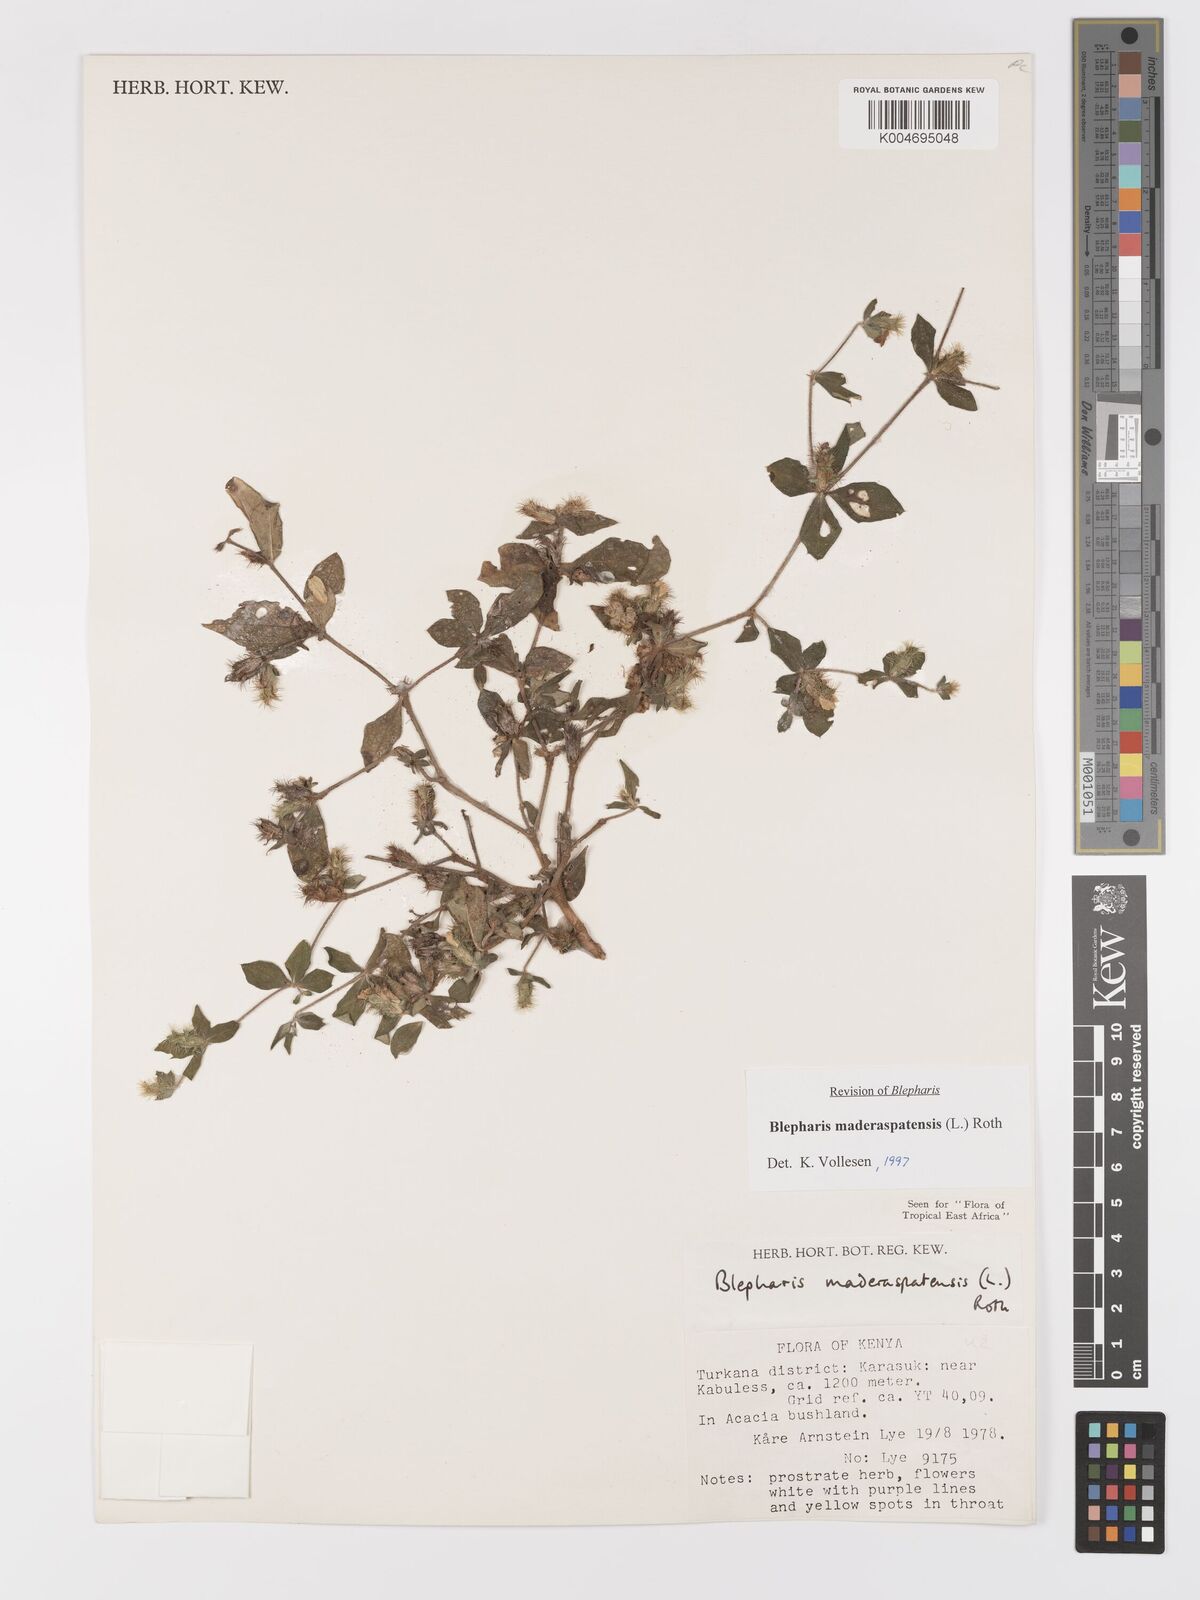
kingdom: Plantae
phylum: Tracheophyta
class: Magnoliopsida
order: Lamiales
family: Acanthaceae
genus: Blepharis
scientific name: Blepharis maderaspatensis
